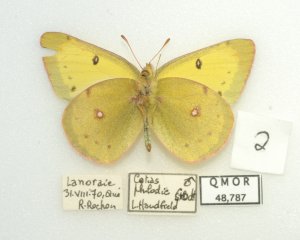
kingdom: Animalia
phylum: Arthropoda
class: Insecta
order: Lepidoptera
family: Pieridae
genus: Colias
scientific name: Colias philodice
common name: Clouded Sulphur
